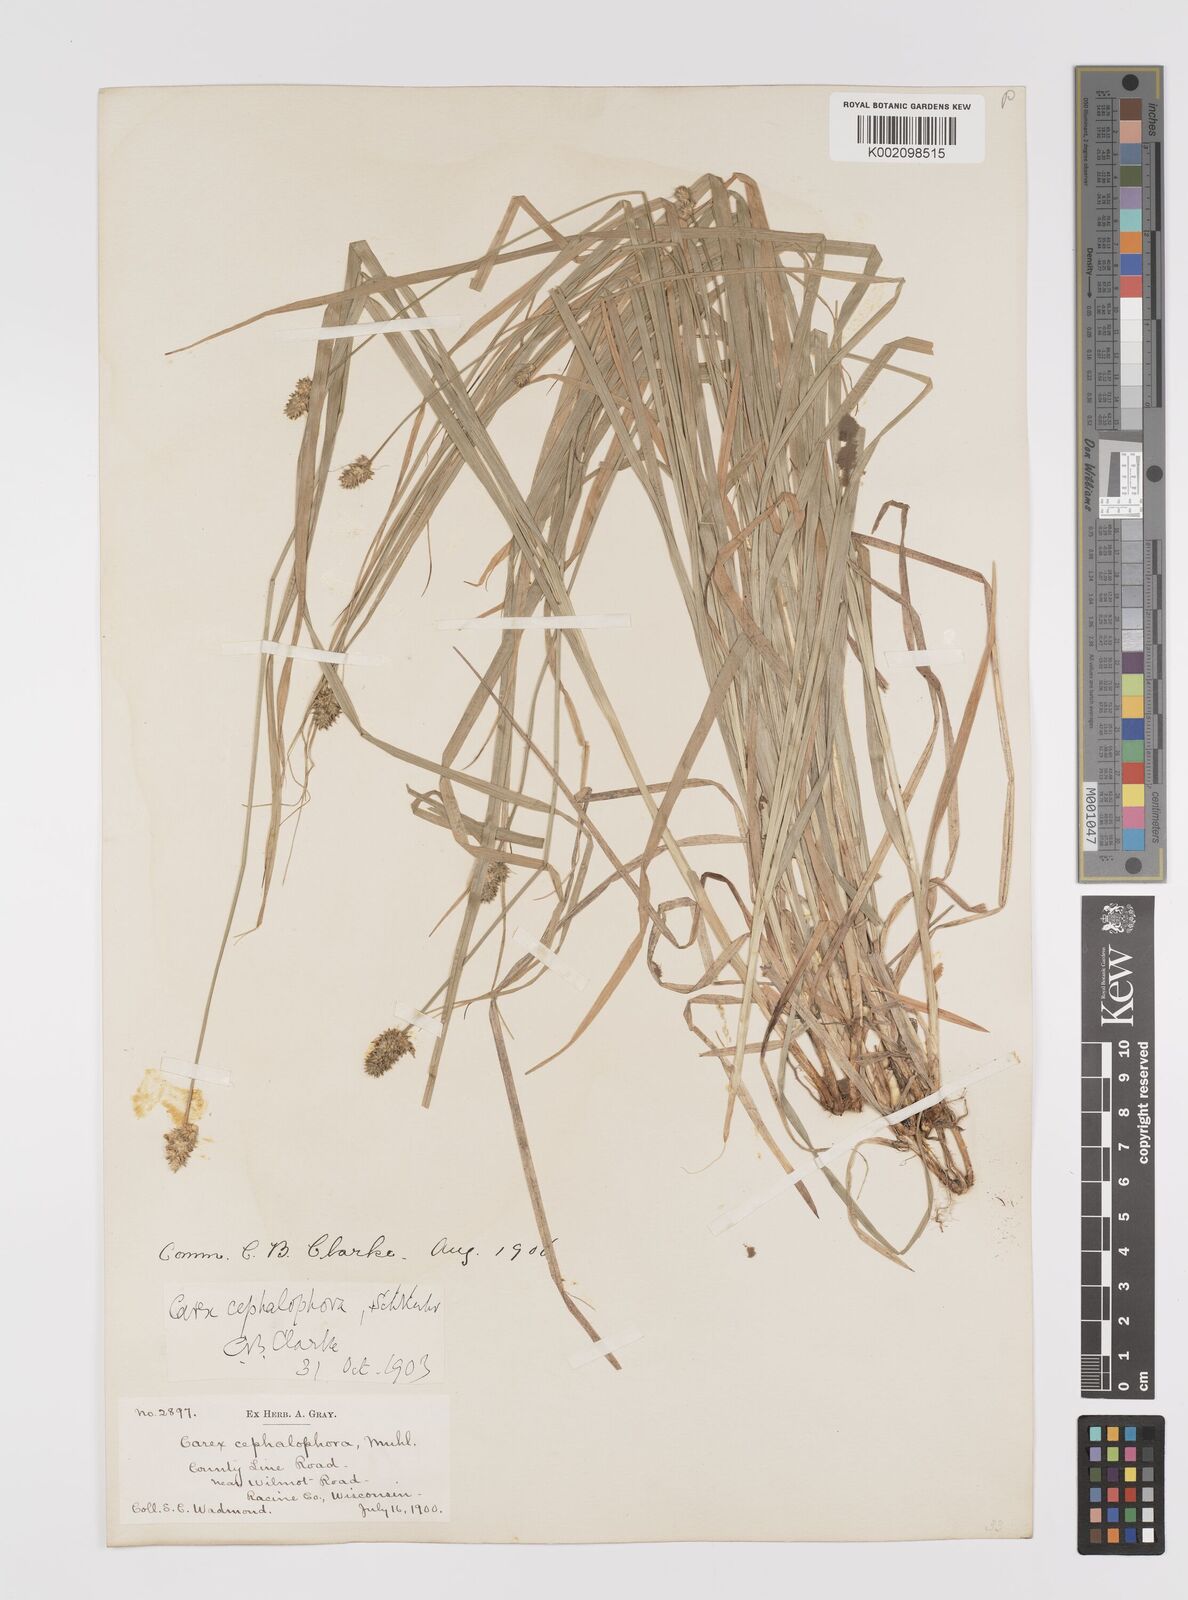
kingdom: Plantae
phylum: Tracheophyta
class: Liliopsida
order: Poales
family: Cyperaceae
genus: Carex
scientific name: Carex cephalophora
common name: Oval-headed sedge
